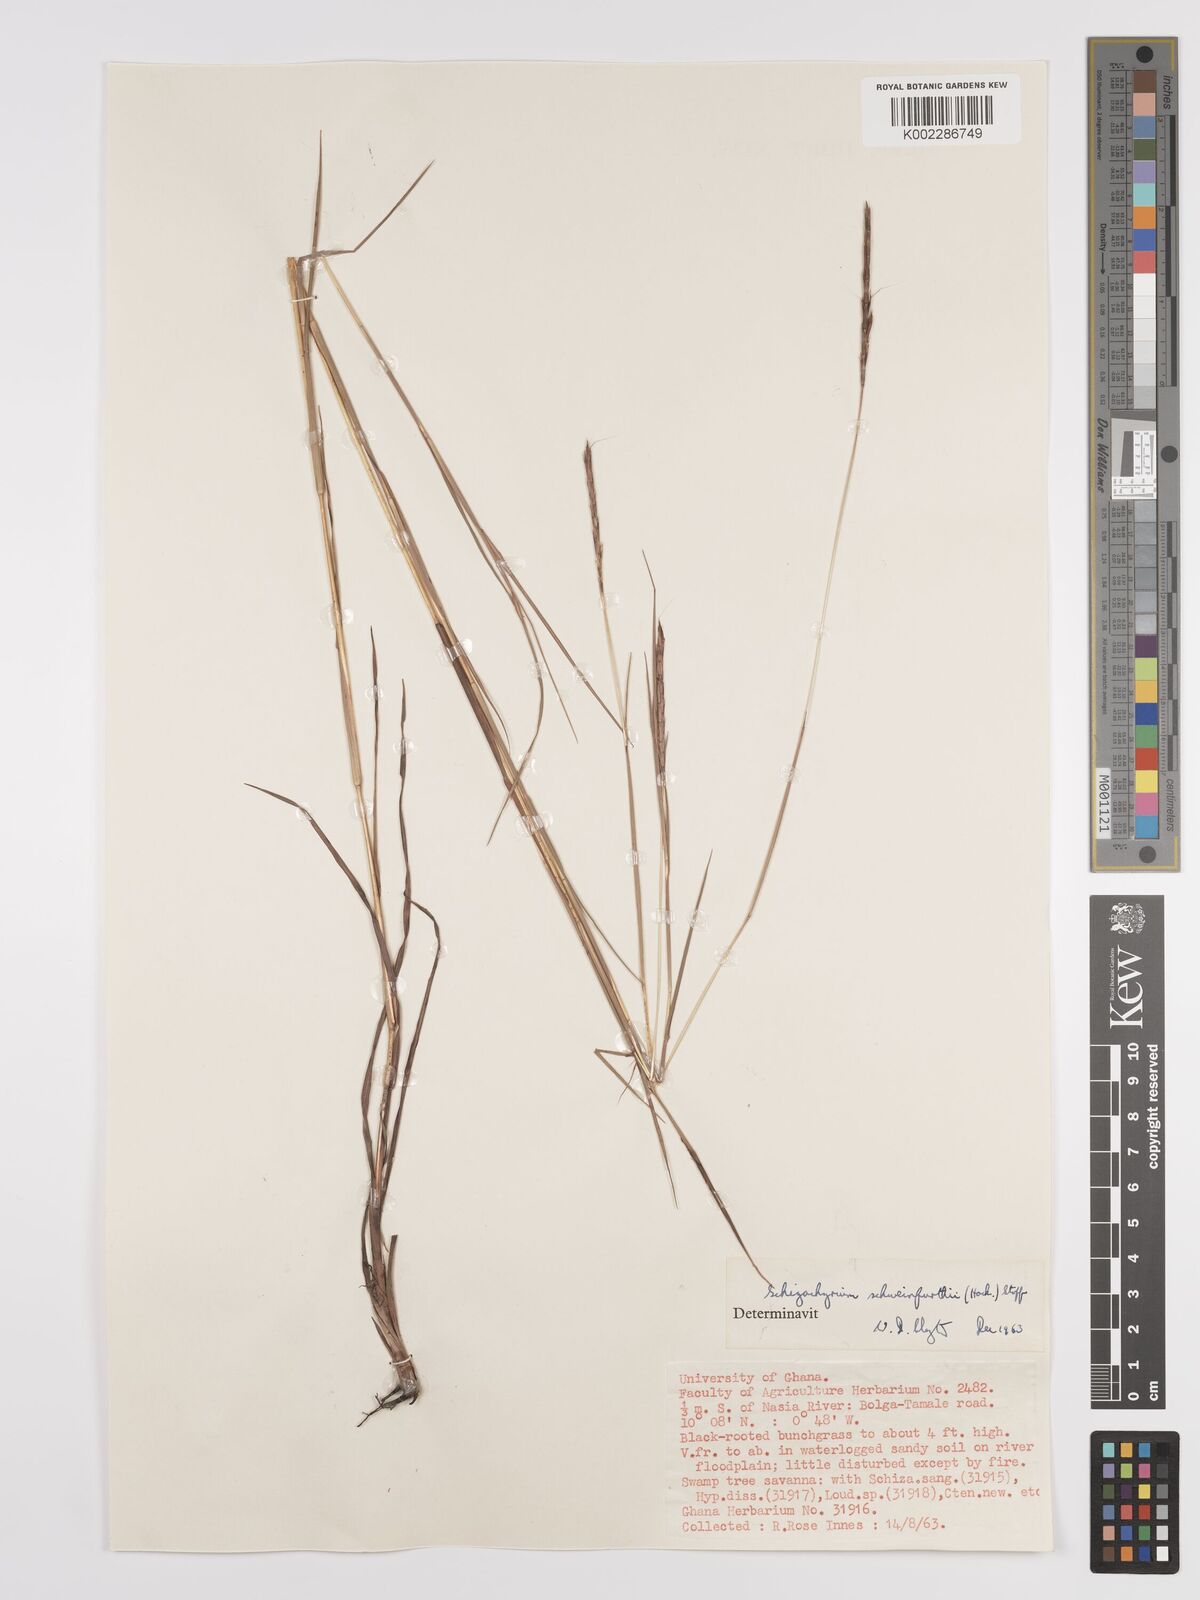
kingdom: Plantae
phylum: Tracheophyta
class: Liliopsida
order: Poales
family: Poaceae
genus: Andropogon
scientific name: Andropogon schweinfurthii
